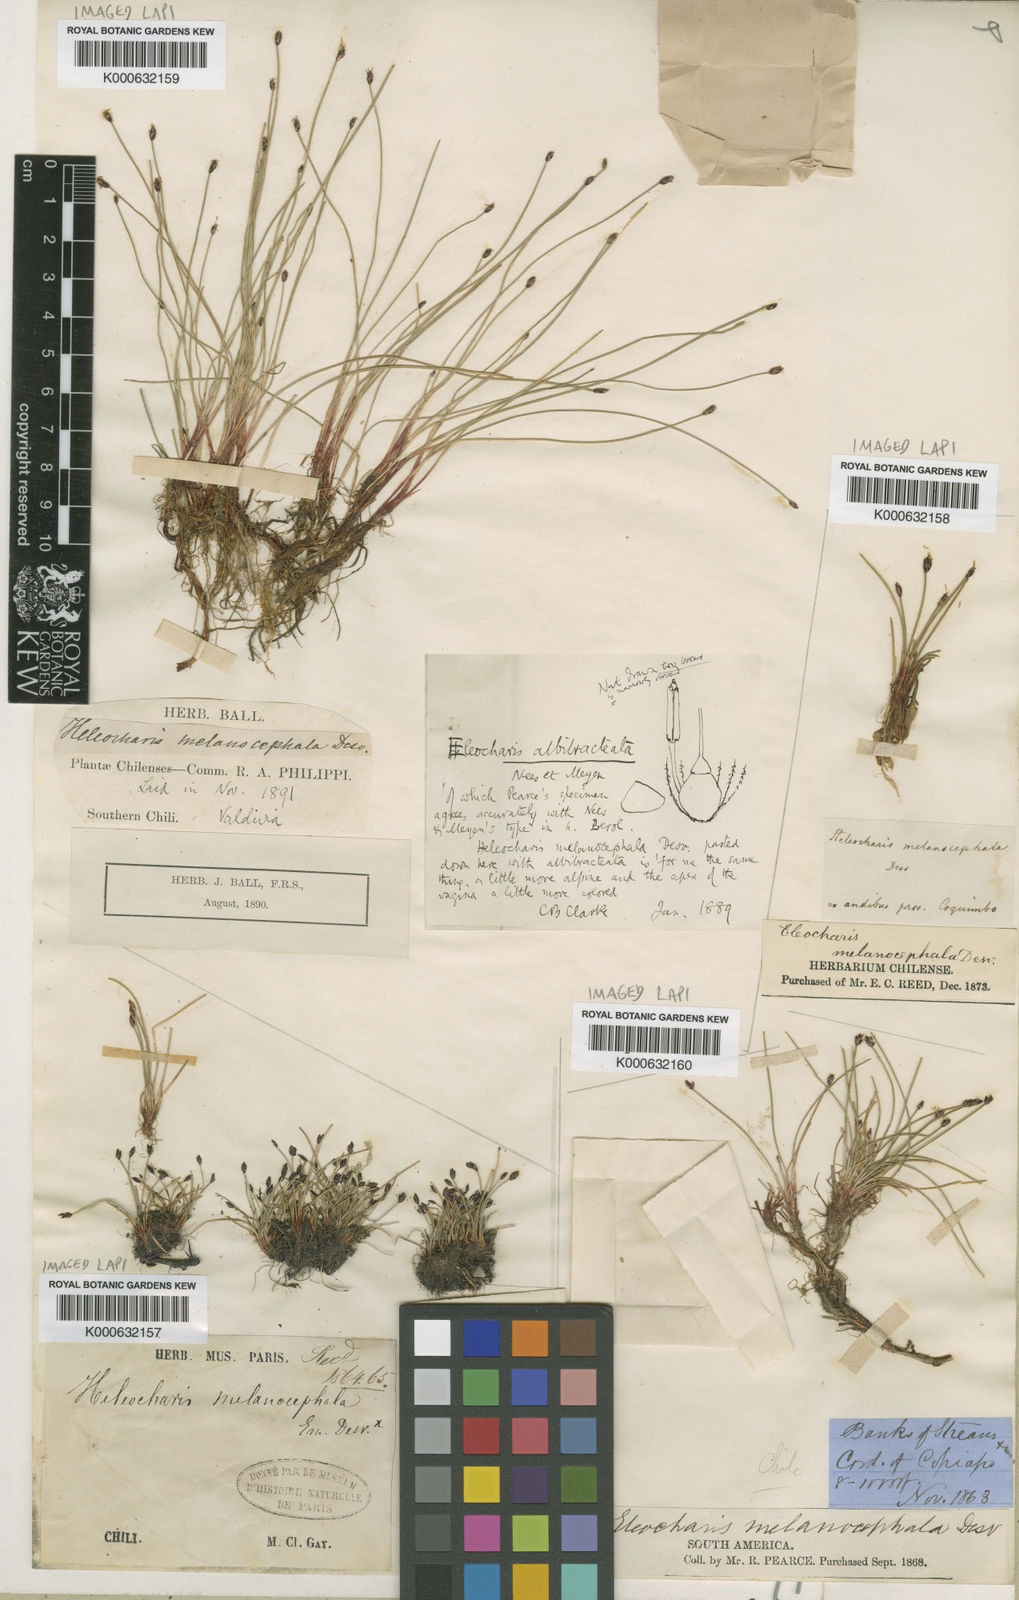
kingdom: Plantae
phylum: Tracheophyta
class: Liliopsida
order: Poales
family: Cyperaceae
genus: Eleocharis
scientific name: Eleocharis albibracteata
